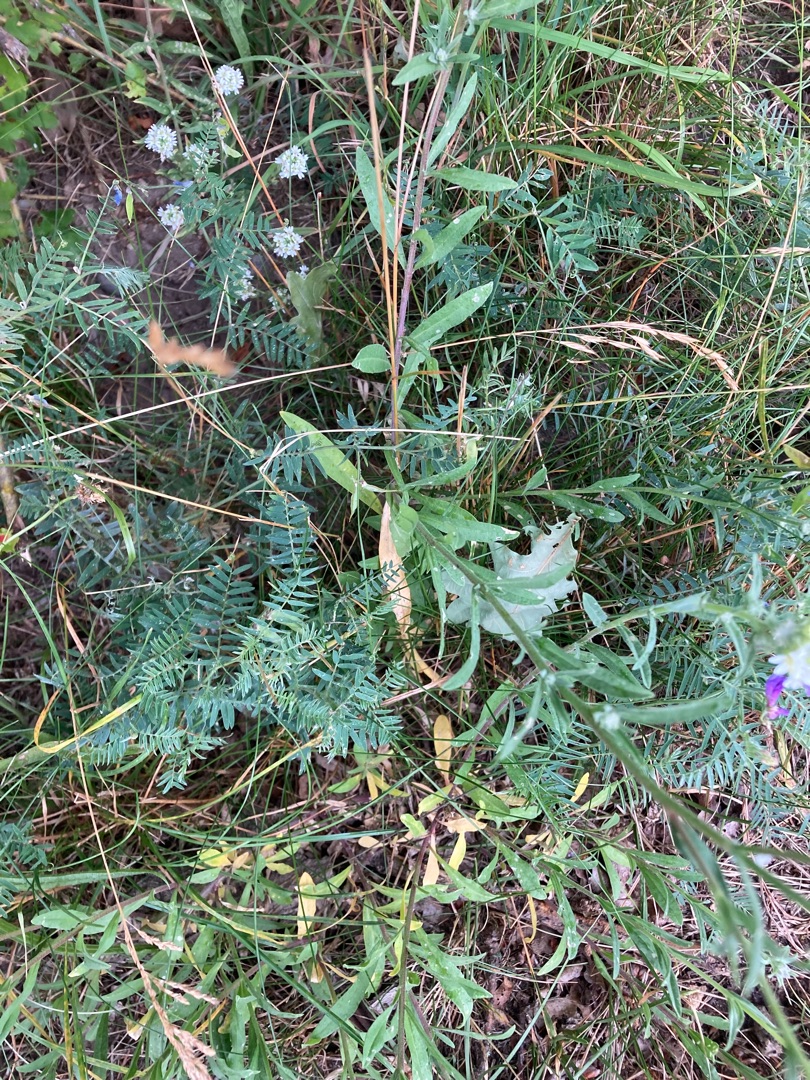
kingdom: Plantae
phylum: Tracheophyta
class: Magnoliopsida
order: Brassicales
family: Brassicaceae
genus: Berteroa
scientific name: Berteroa incana
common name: Kløvplade
